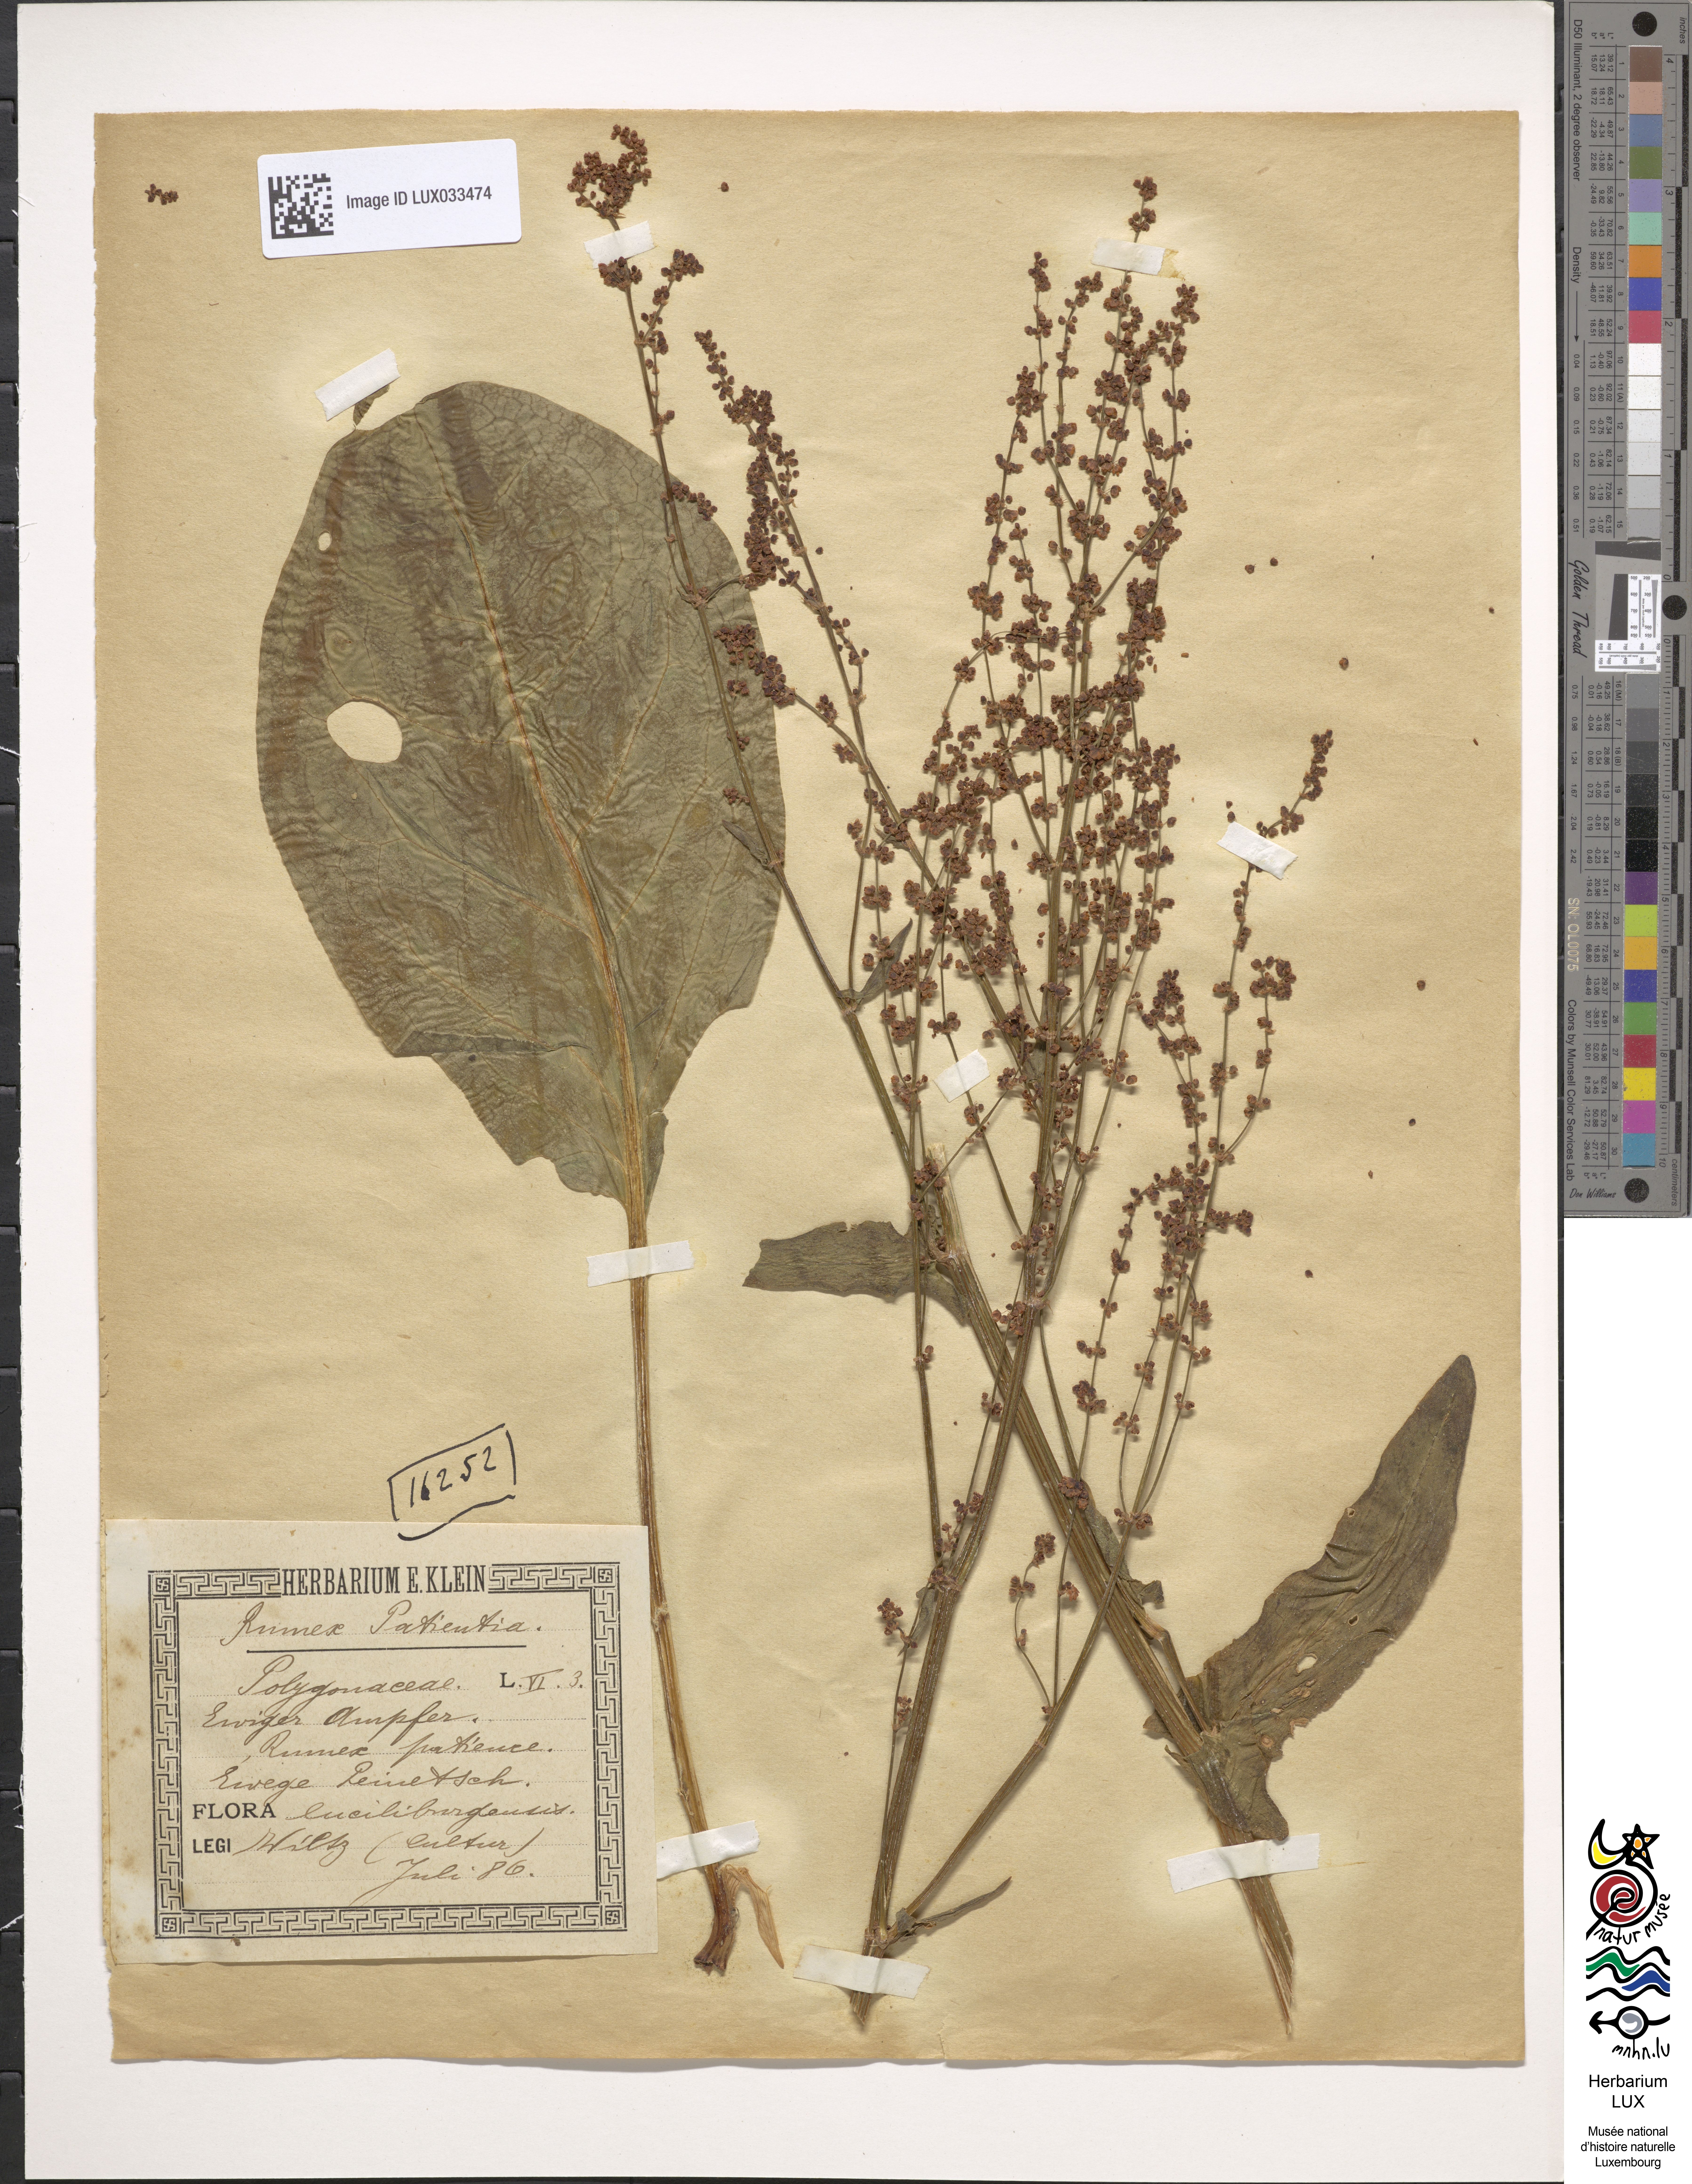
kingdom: Plantae
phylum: Tracheophyta
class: Magnoliopsida
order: Caryophyllales
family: Polygonaceae
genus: Rumex
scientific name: Rumex patientia
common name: Patience dock
